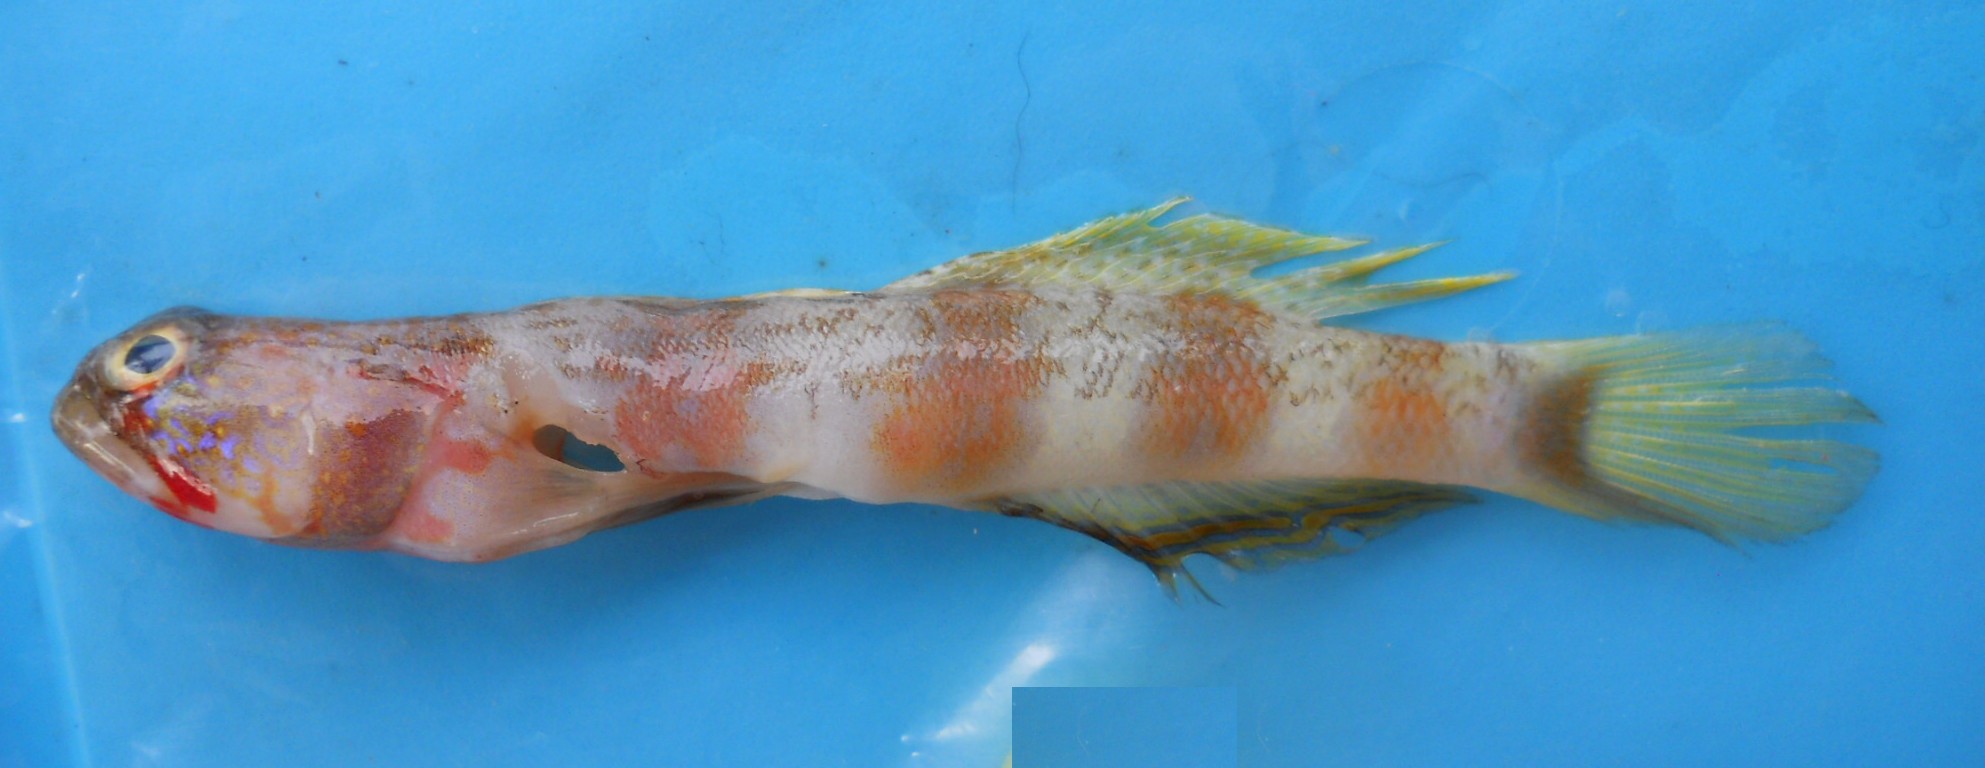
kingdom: Animalia
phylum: Chordata
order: Perciformes
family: Gobiidae
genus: Amblyeleotris
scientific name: Amblyeleotris wheeleri
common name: Gorgeous prawn-goby
